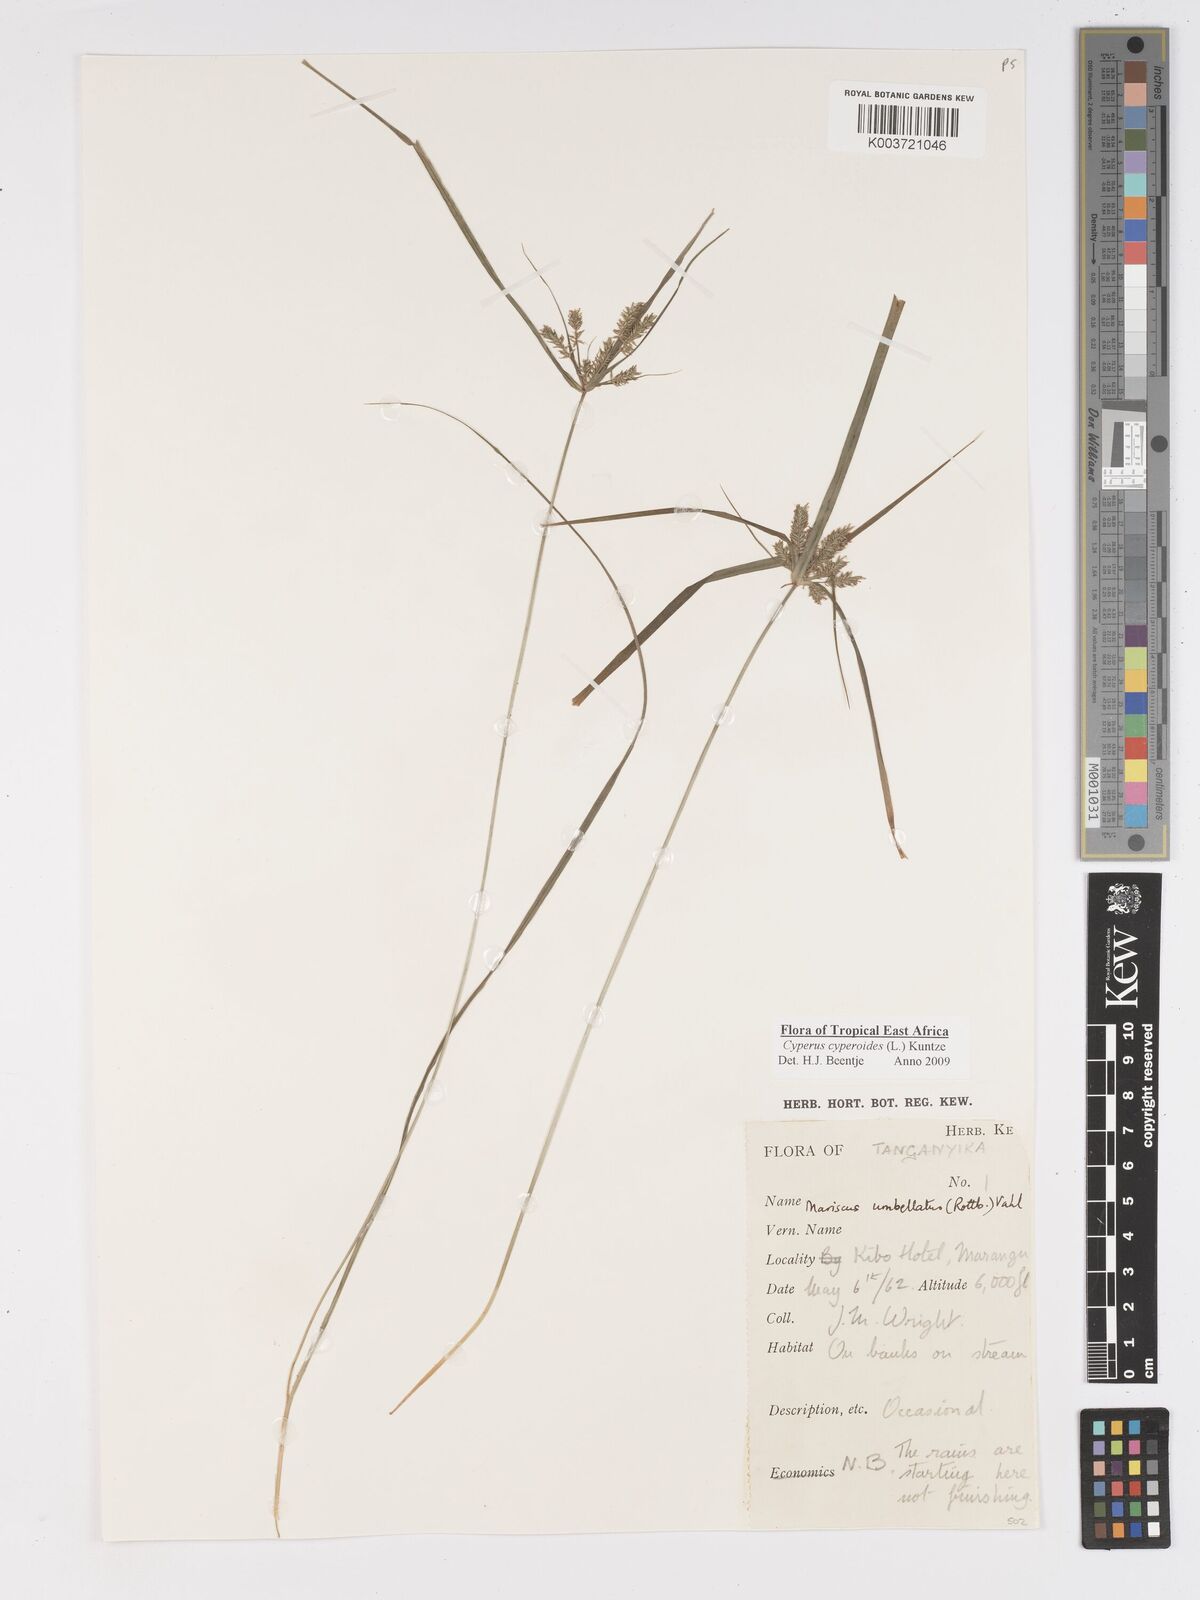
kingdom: Plantae
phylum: Tracheophyta
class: Liliopsida
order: Poales
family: Cyperaceae
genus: Cyperus
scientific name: Cyperus cyperoides
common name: Pacific island flat sedge
